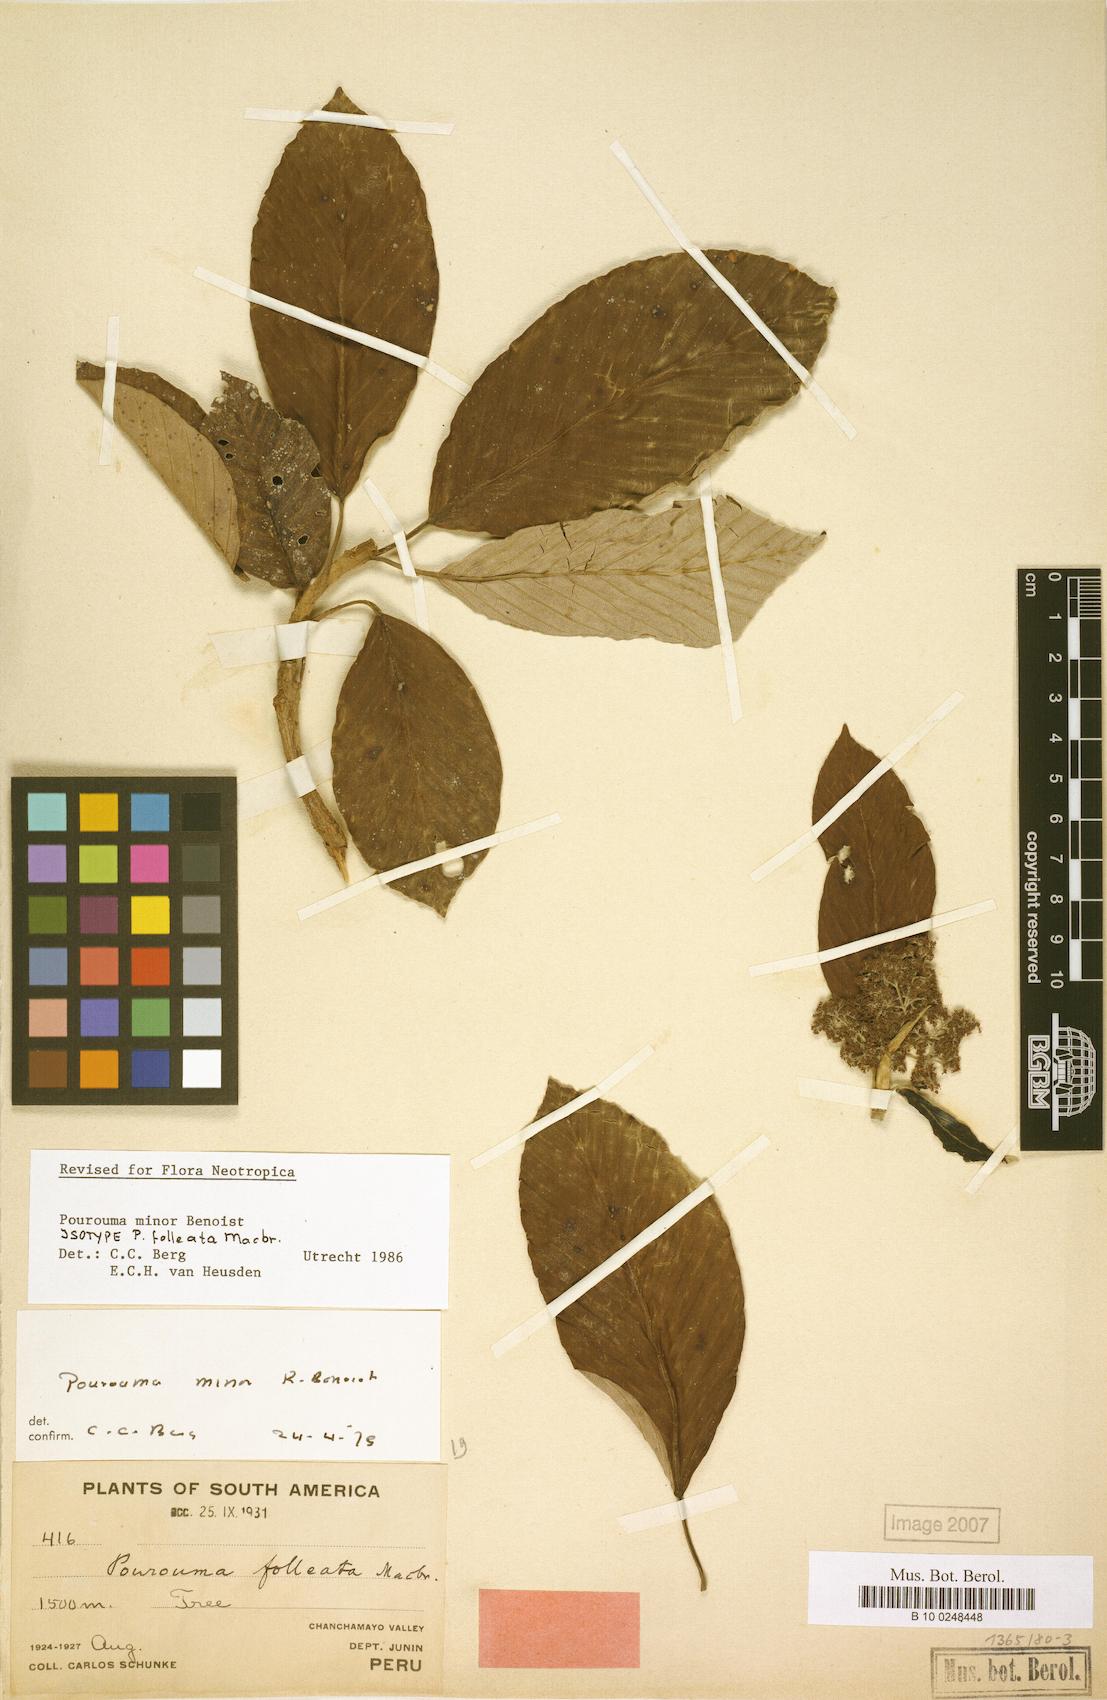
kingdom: Plantae
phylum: Tracheophyta
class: Magnoliopsida
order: Rosales
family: Urticaceae
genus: Pourouma
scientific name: Pourouma minor
